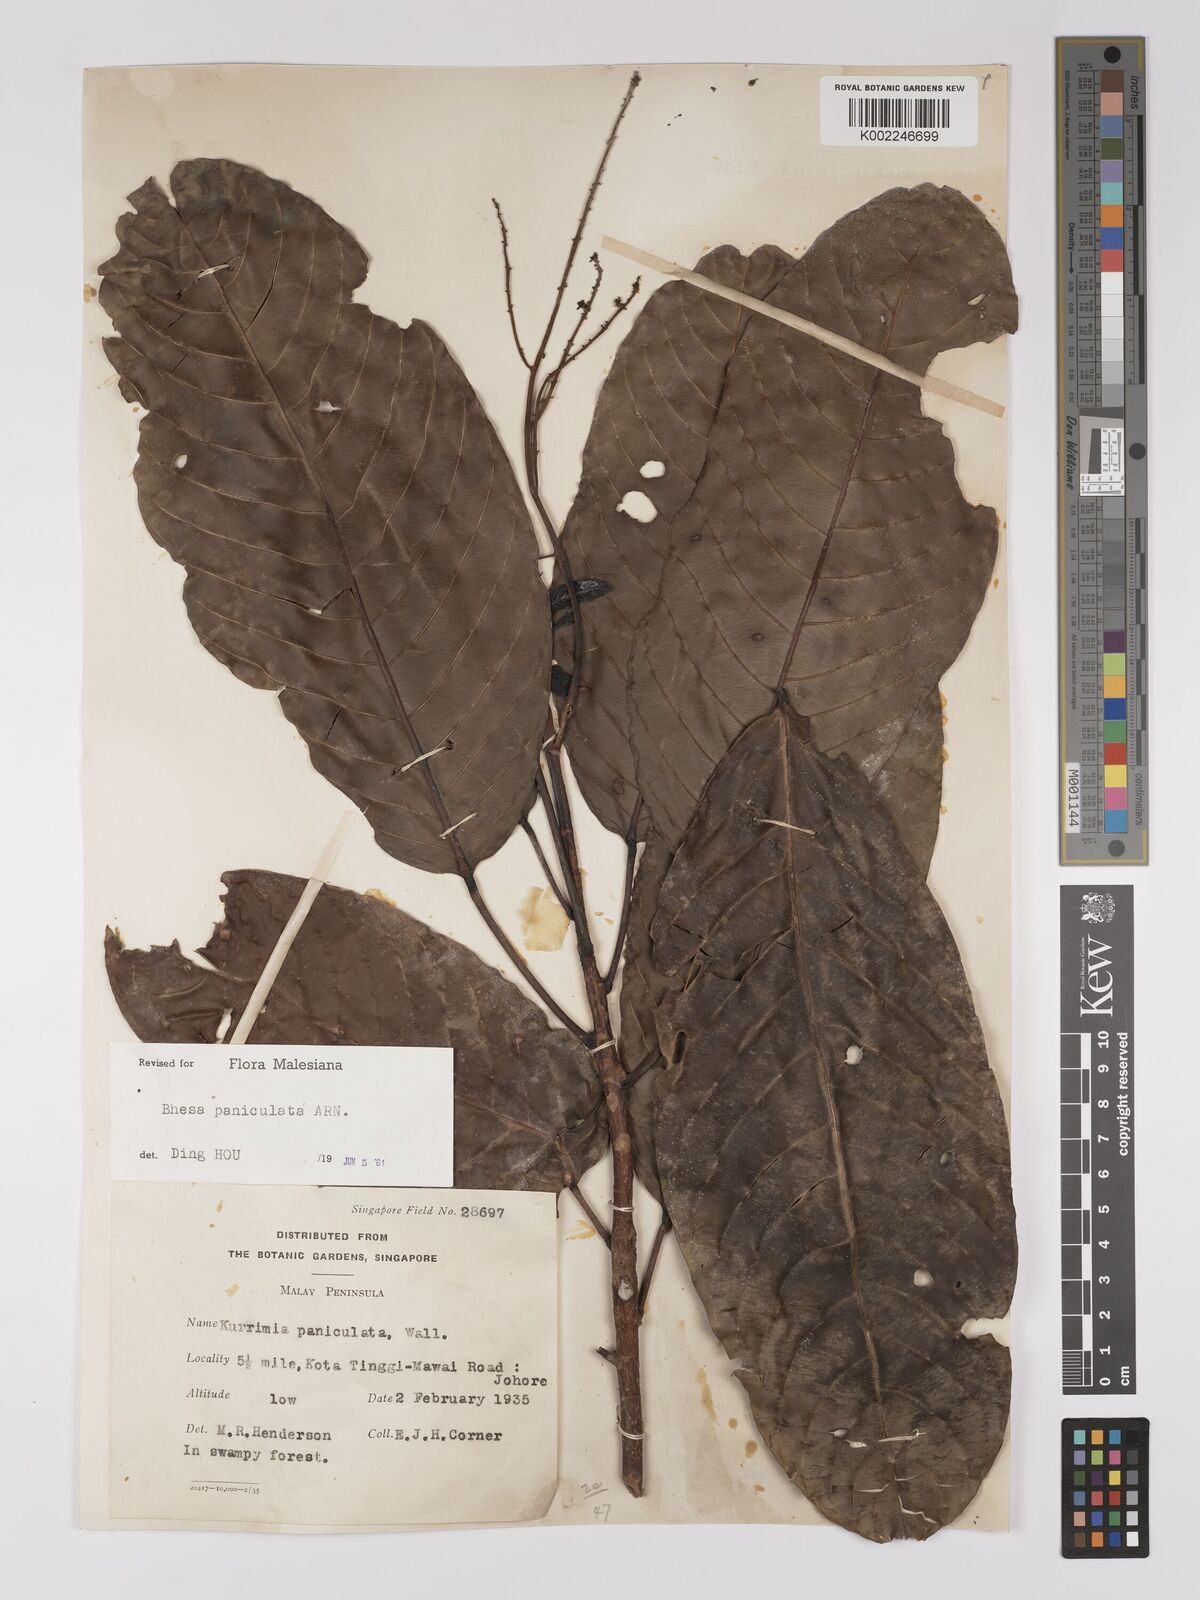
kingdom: Plantae
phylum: Tracheophyta
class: Magnoliopsida
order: Malpighiales
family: Centroplacaceae
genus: Bhesa
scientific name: Bhesa paniculata
